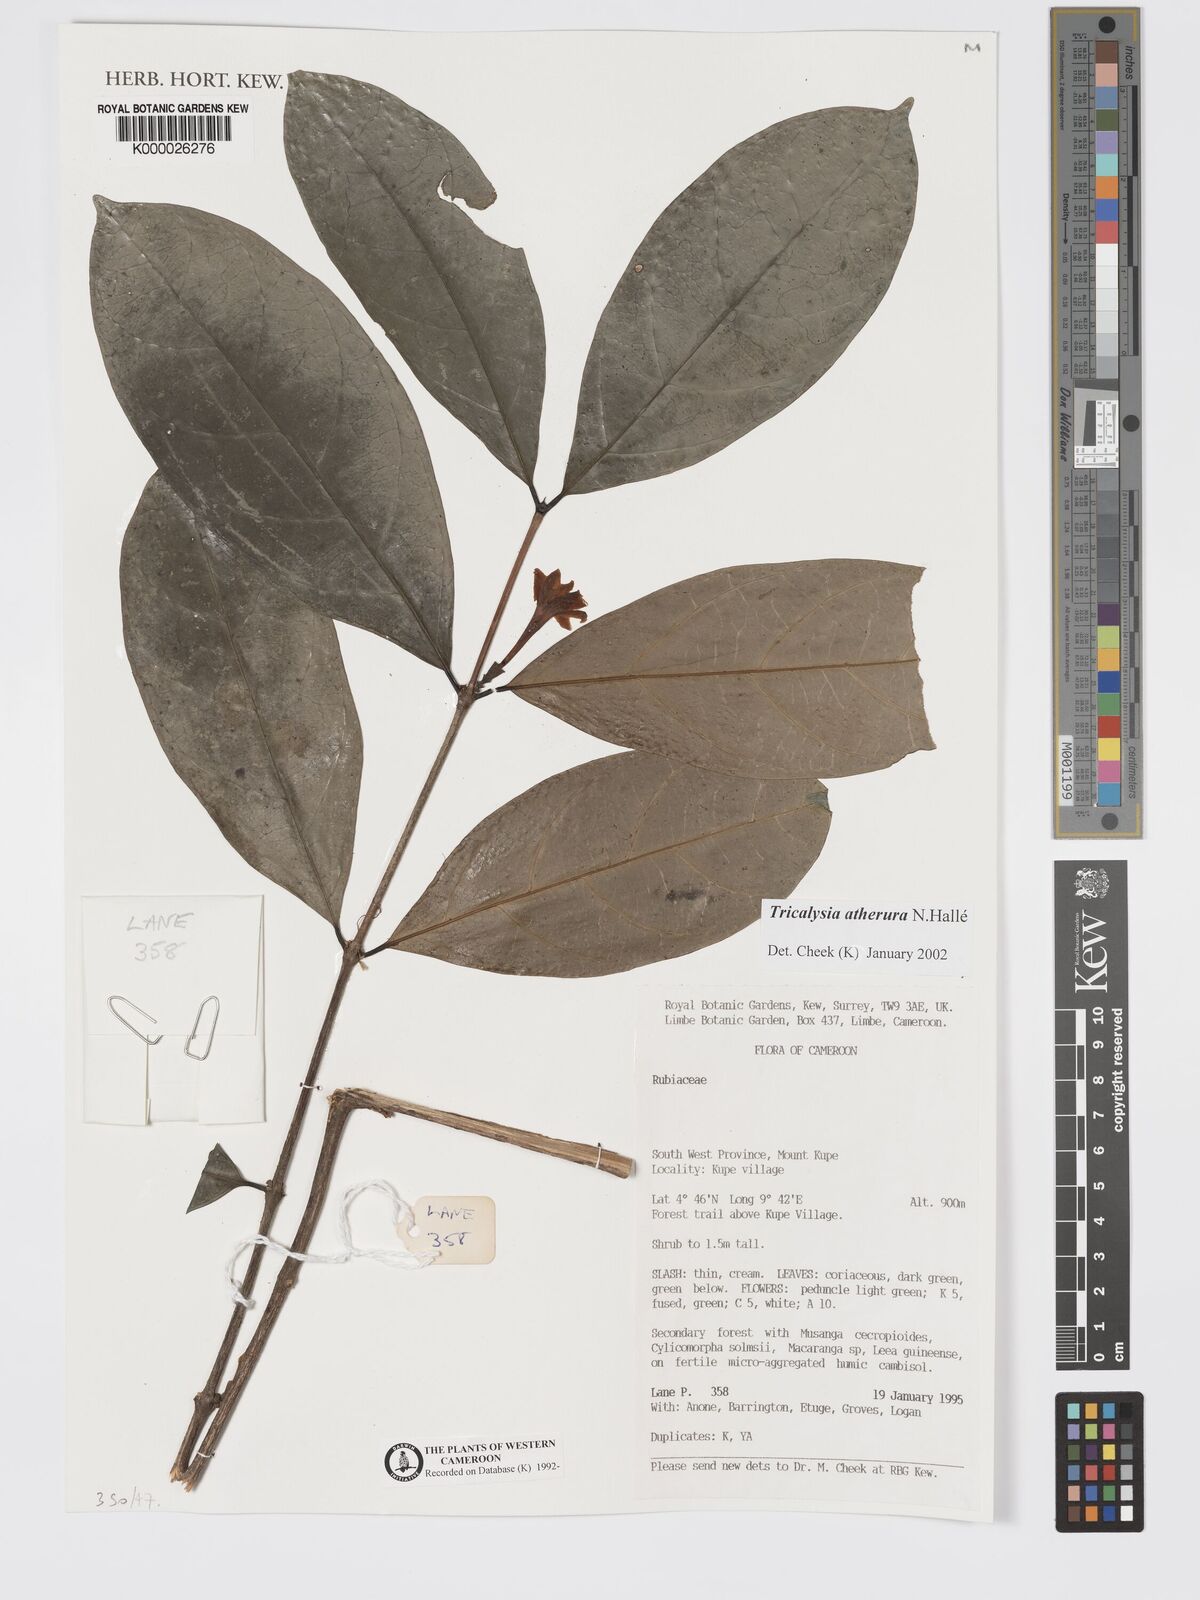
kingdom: Plantae
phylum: Tracheophyta
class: Magnoliopsida
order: Gentianales
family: Rubiaceae
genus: Tricalysia
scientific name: Tricalysia
